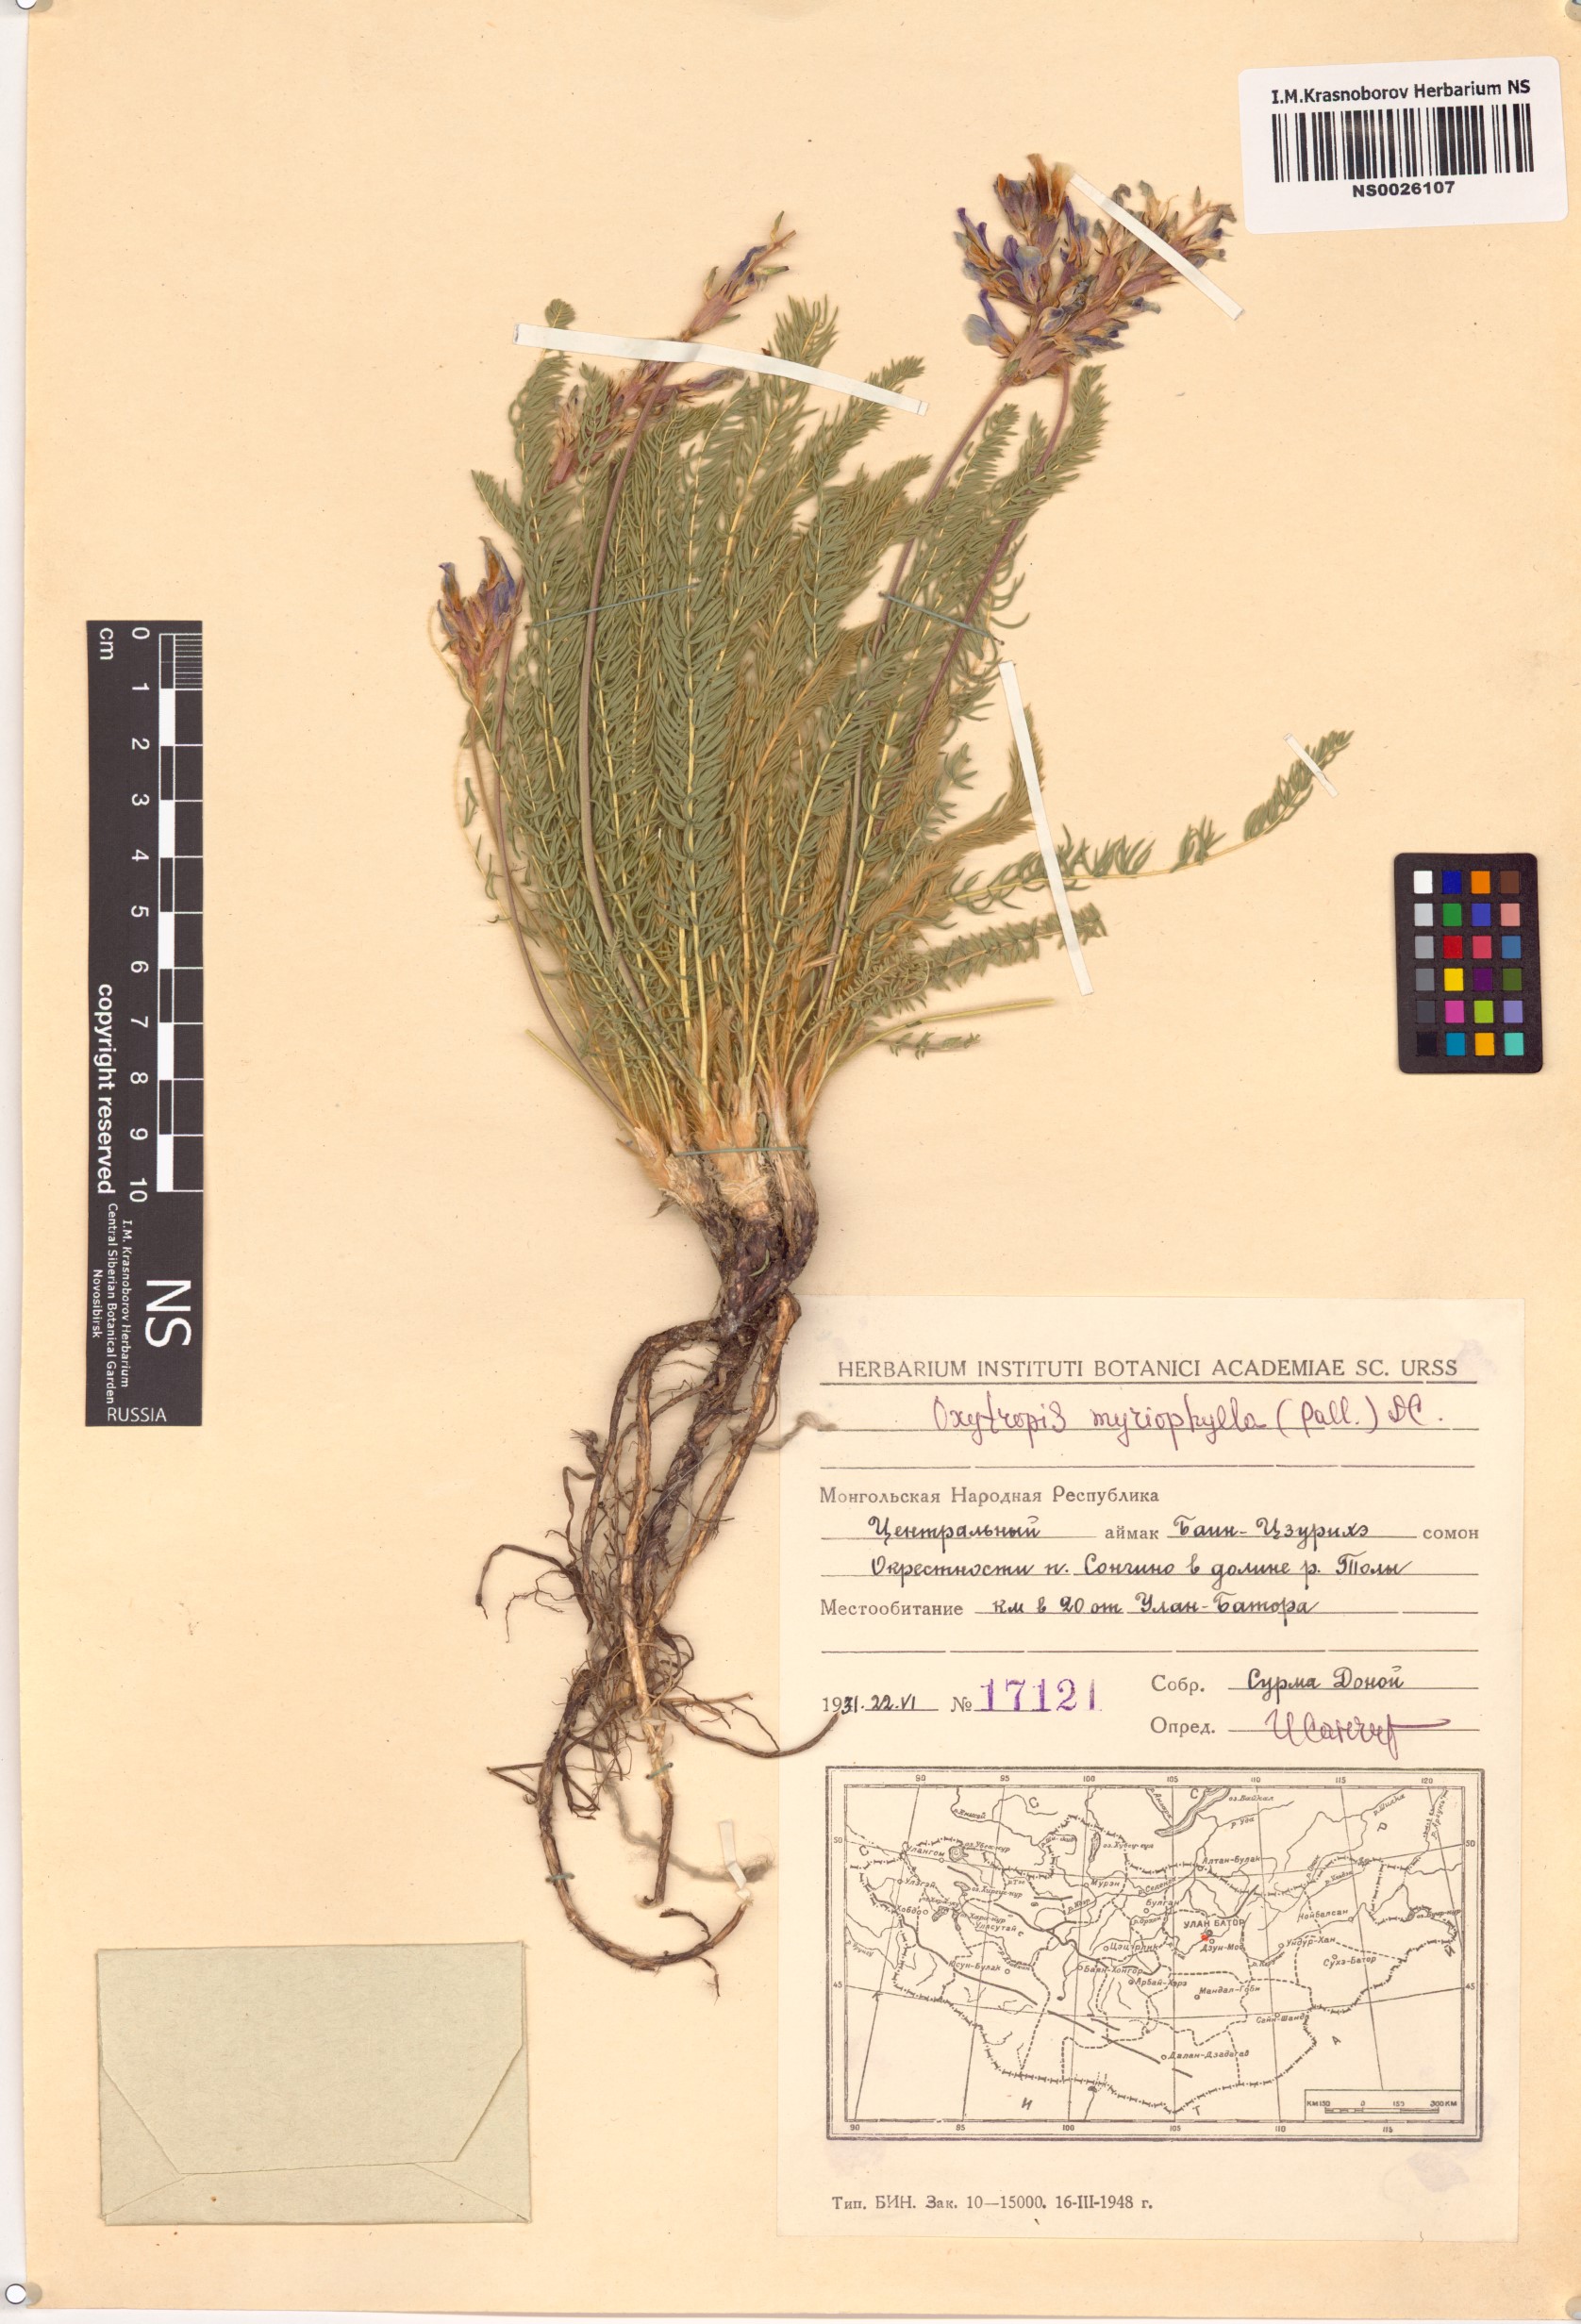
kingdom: Plantae
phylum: Tracheophyta
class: Magnoliopsida
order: Fabales
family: Fabaceae
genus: Oxytropis
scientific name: Oxytropis myriophylla
